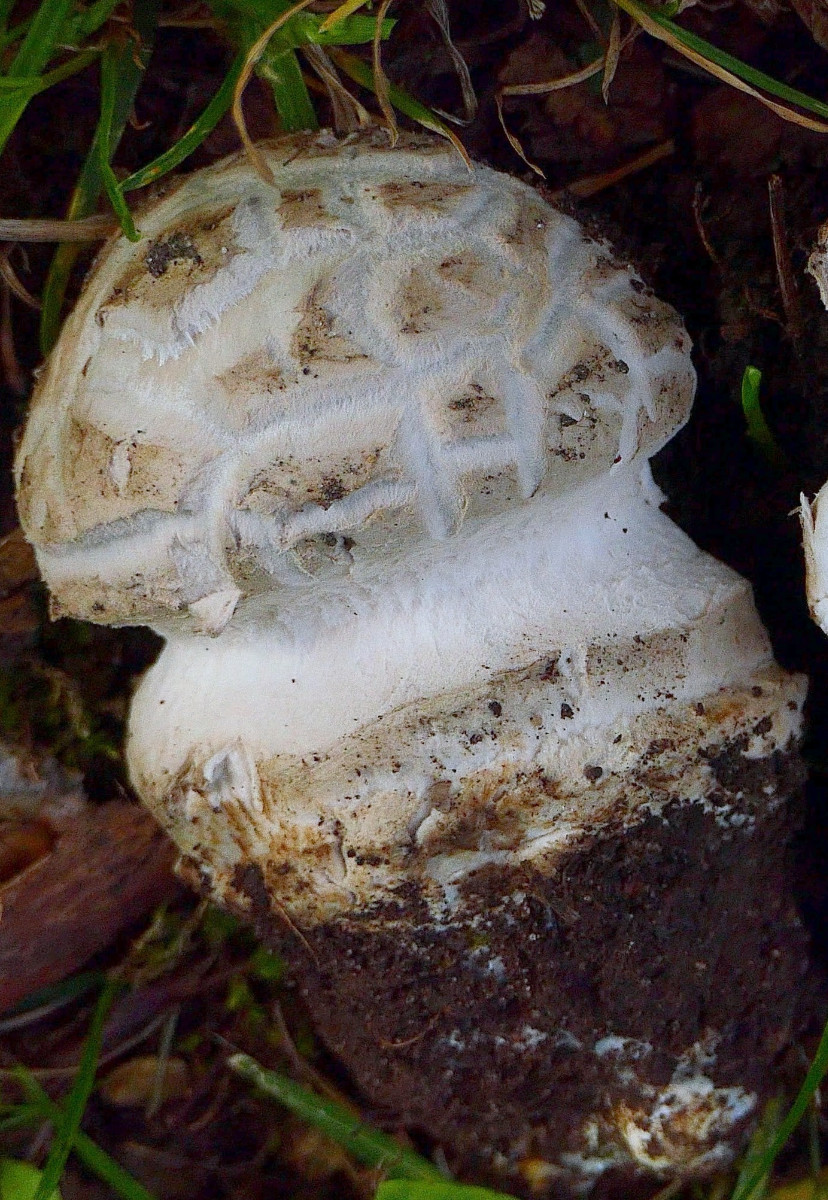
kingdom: Fungi
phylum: Basidiomycota
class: Agaricomycetes
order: Agaricales
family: Amanitaceae
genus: Amanita
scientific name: Amanita
